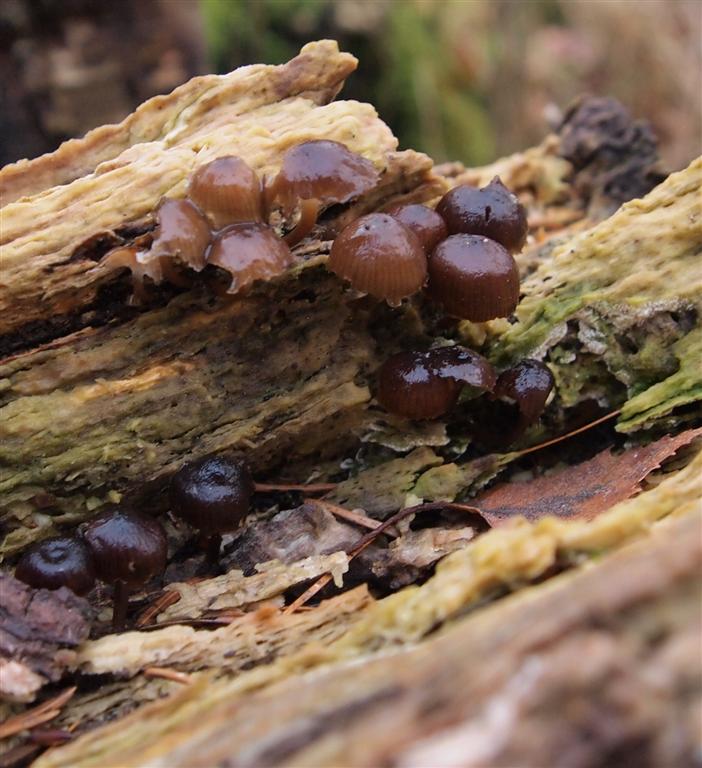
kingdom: Fungi
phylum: Basidiomycota
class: Agaricomycetes
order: Agaricales
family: Mycenaceae
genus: Mycena
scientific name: Mycena tintinnabulum
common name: vinter-huesvamp
